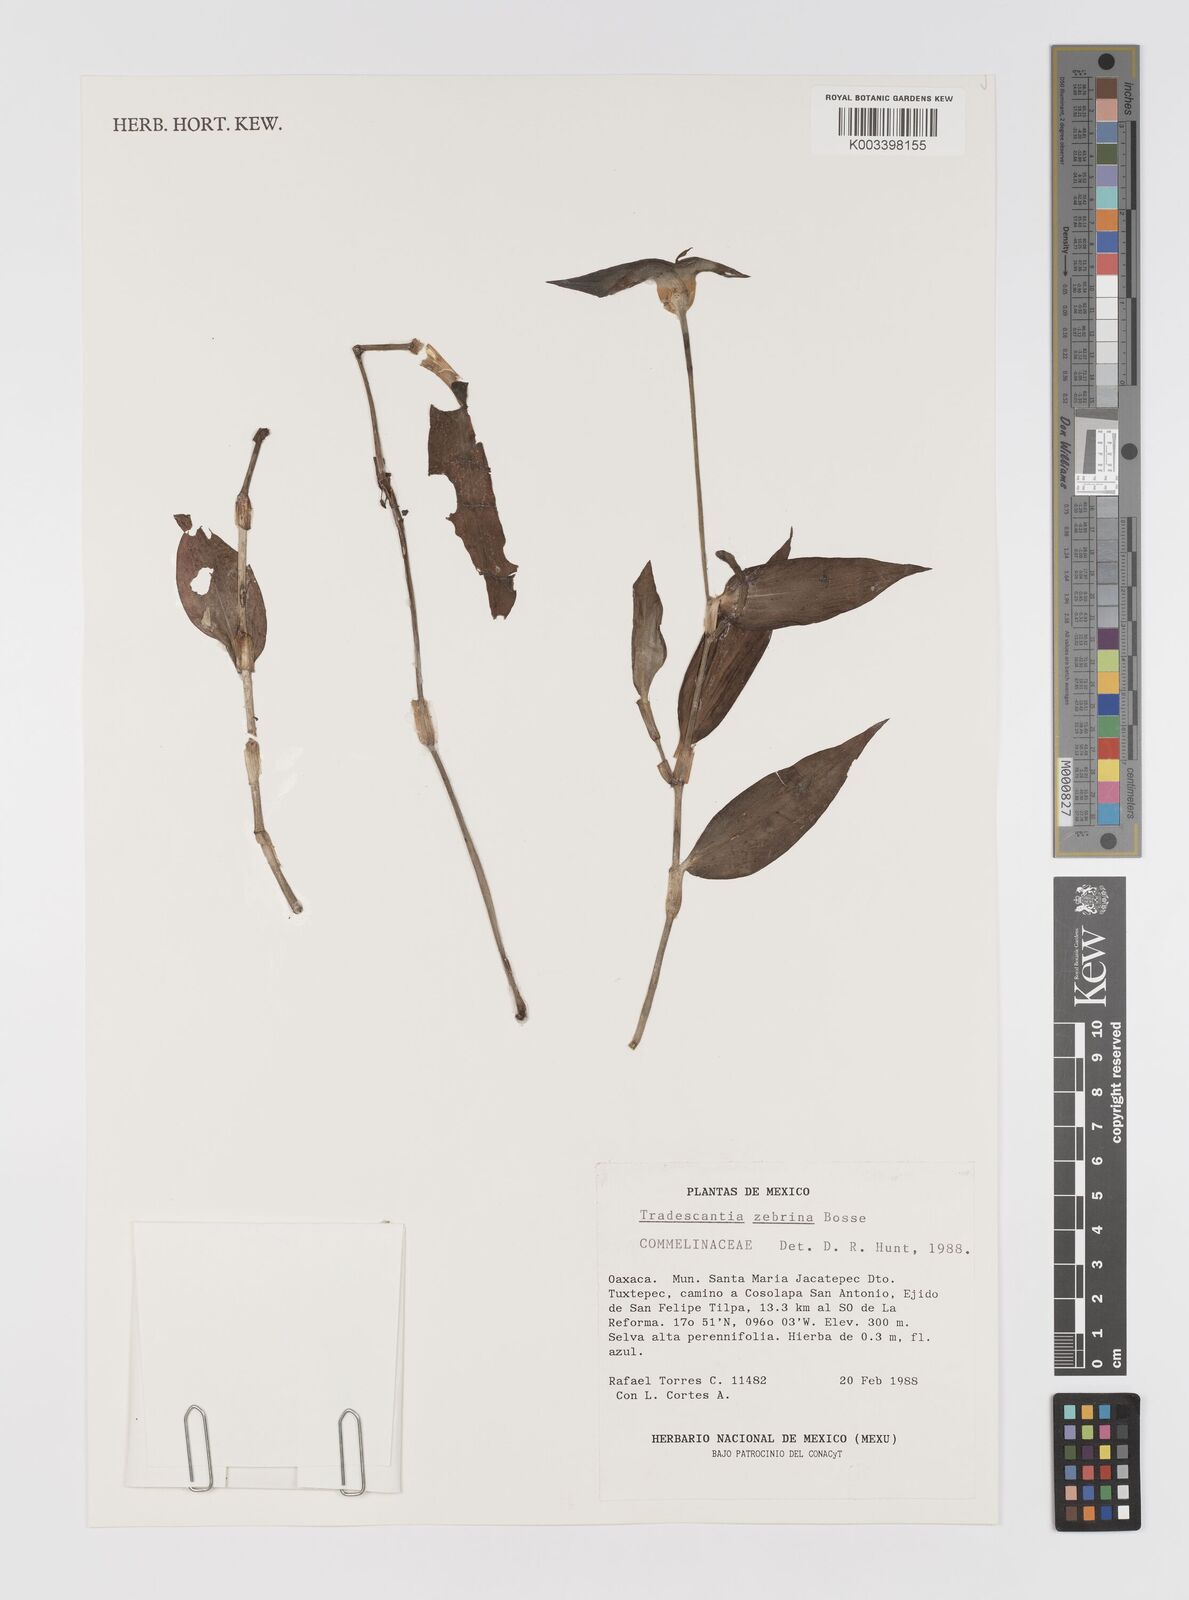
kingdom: Plantae
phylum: Tracheophyta
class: Liliopsida
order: Commelinales
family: Commelinaceae
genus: Tradescantia
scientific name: Tradescantia zebrina
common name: Inchplant
